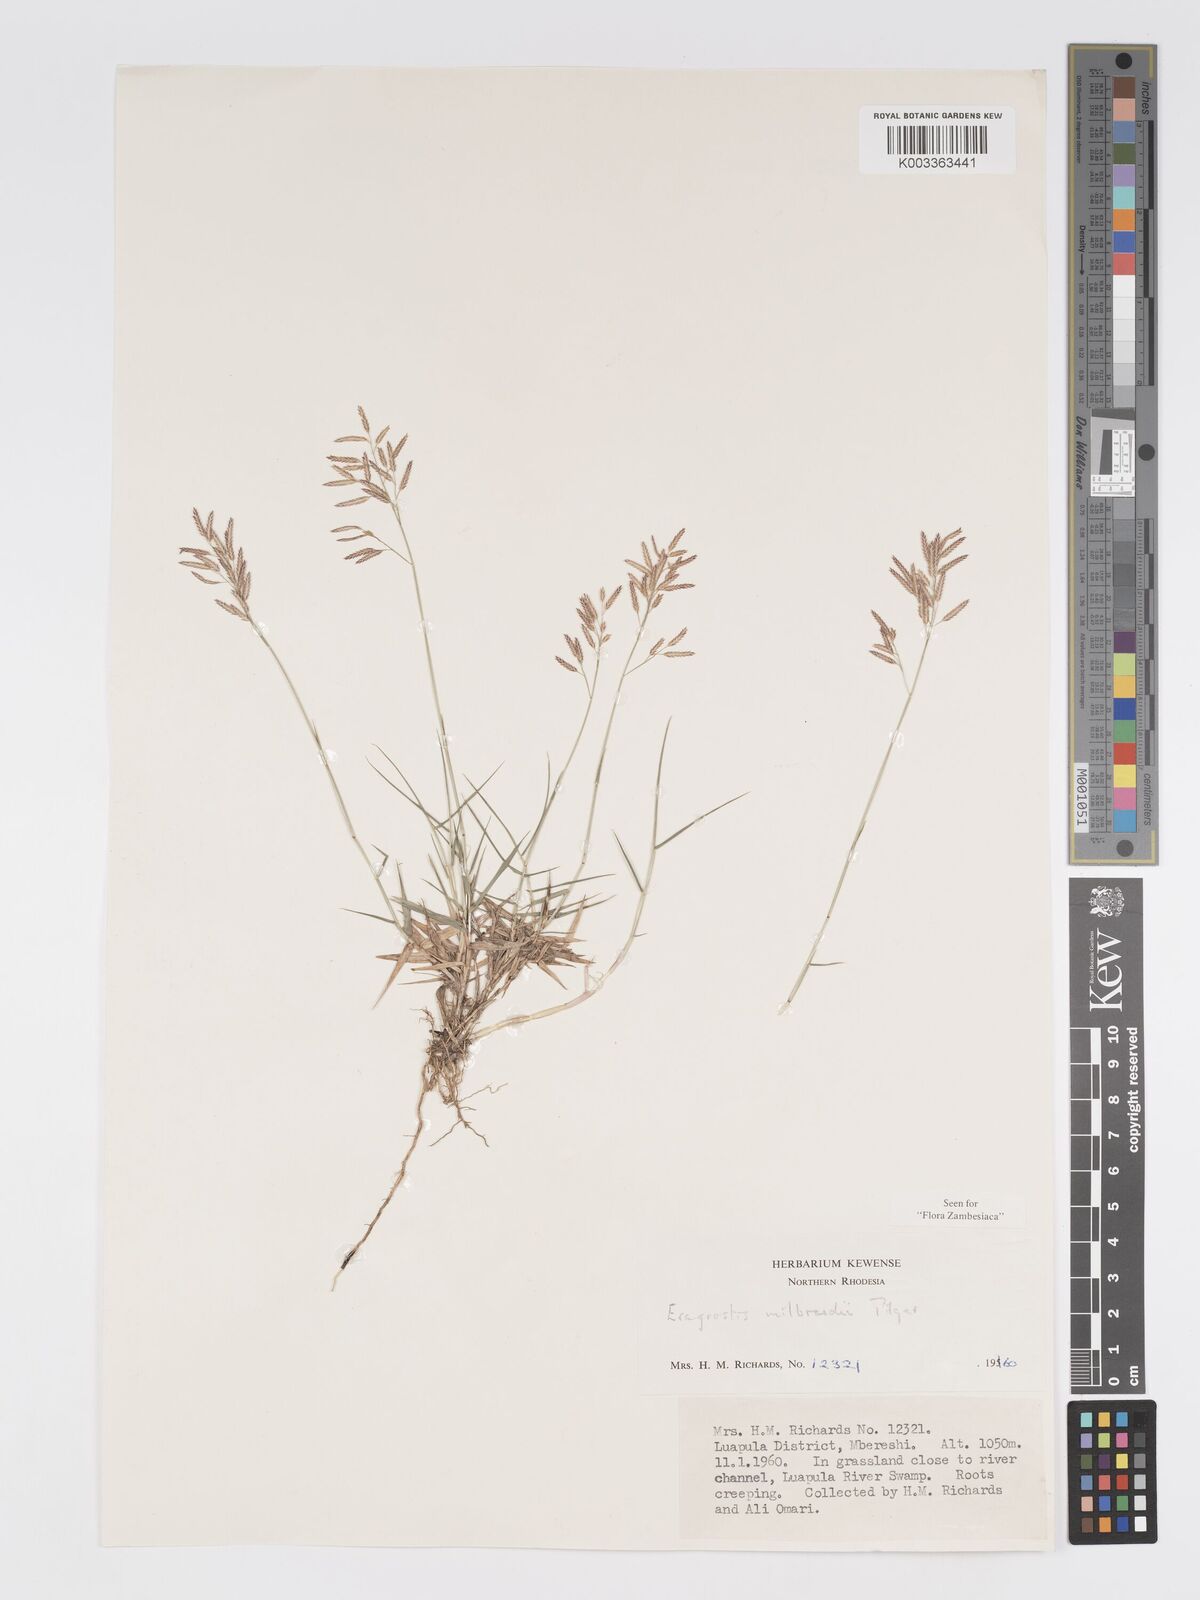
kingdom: Plantae
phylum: Tracheophyta
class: Liliopsida
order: Poales
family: Poaceae
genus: Eragrostis
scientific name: Eragrostis mildbraedii
